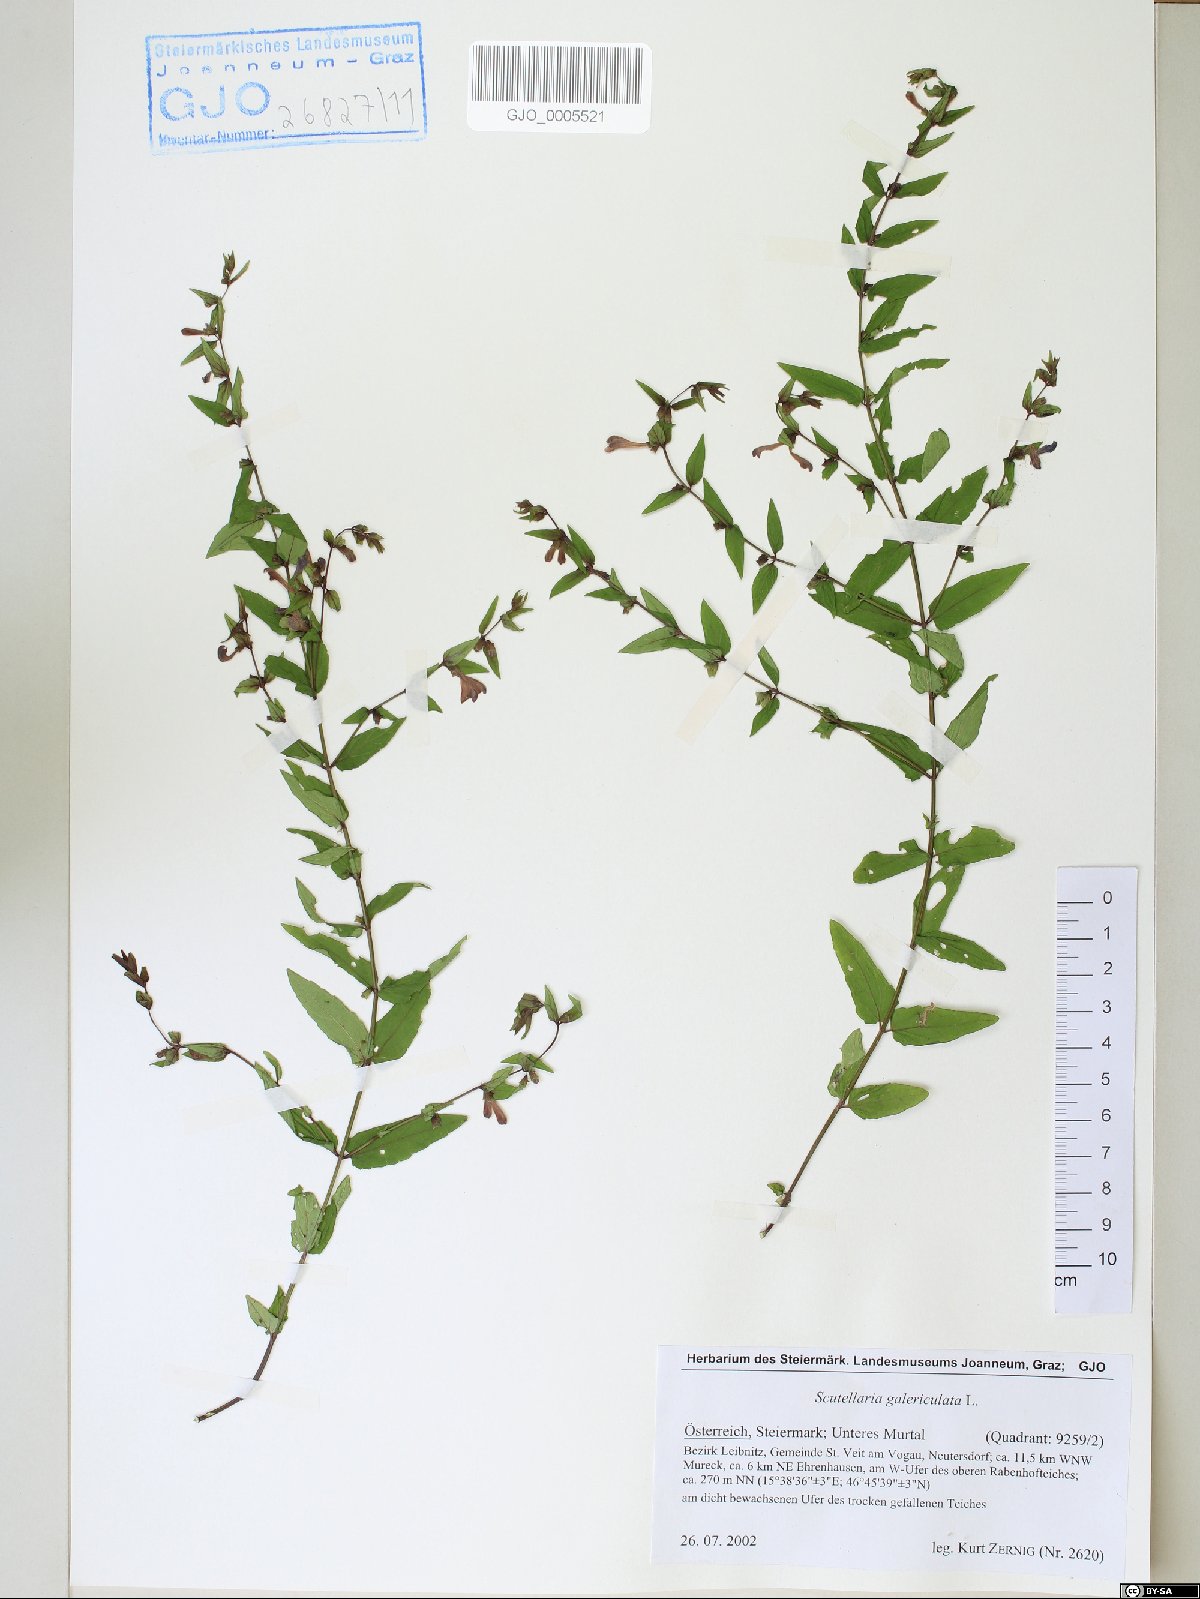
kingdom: Plantae
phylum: Tracheophyta
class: Magnoliopsida
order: Lamiales
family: Lamiaceae
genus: Scutellaria
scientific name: Scutellaria galericulata
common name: Skullcap
